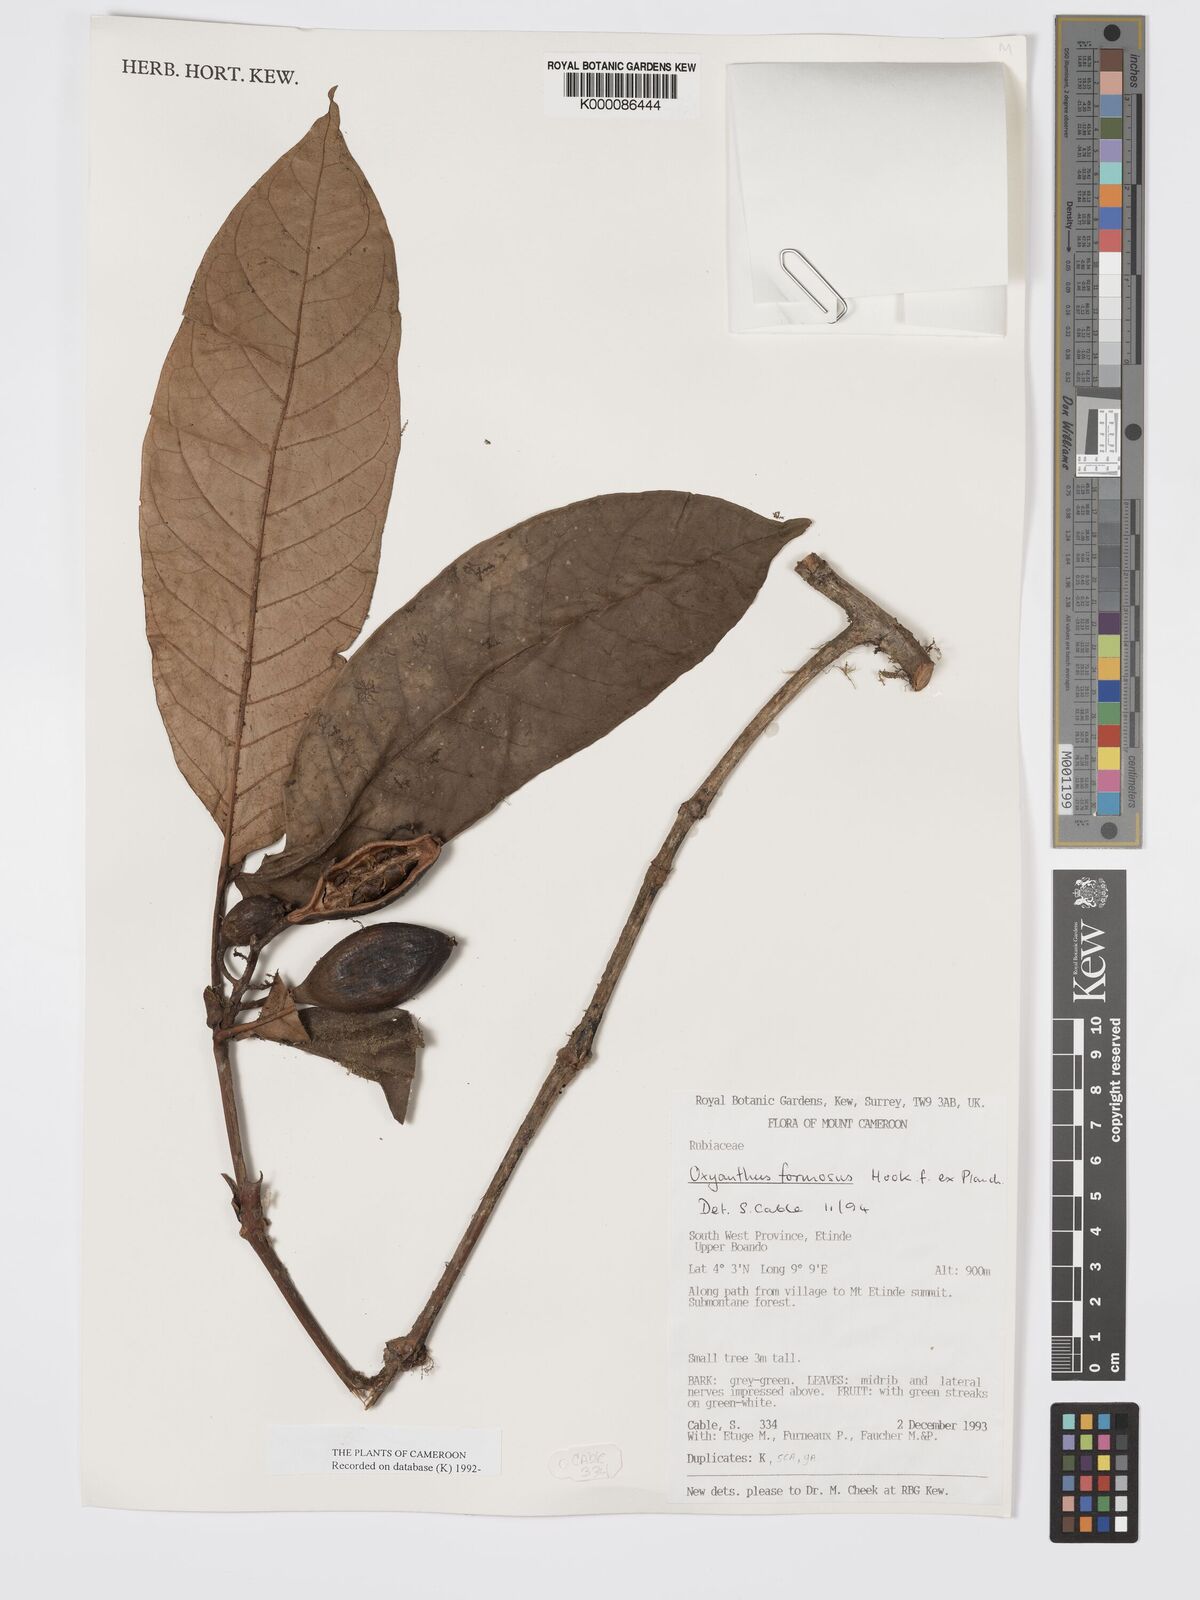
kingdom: Plantae
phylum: Tracheophyta
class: Magnoliopsida
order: Gentianales
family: Rubiaceae
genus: Oxyanthus
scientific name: Oxyanthus
